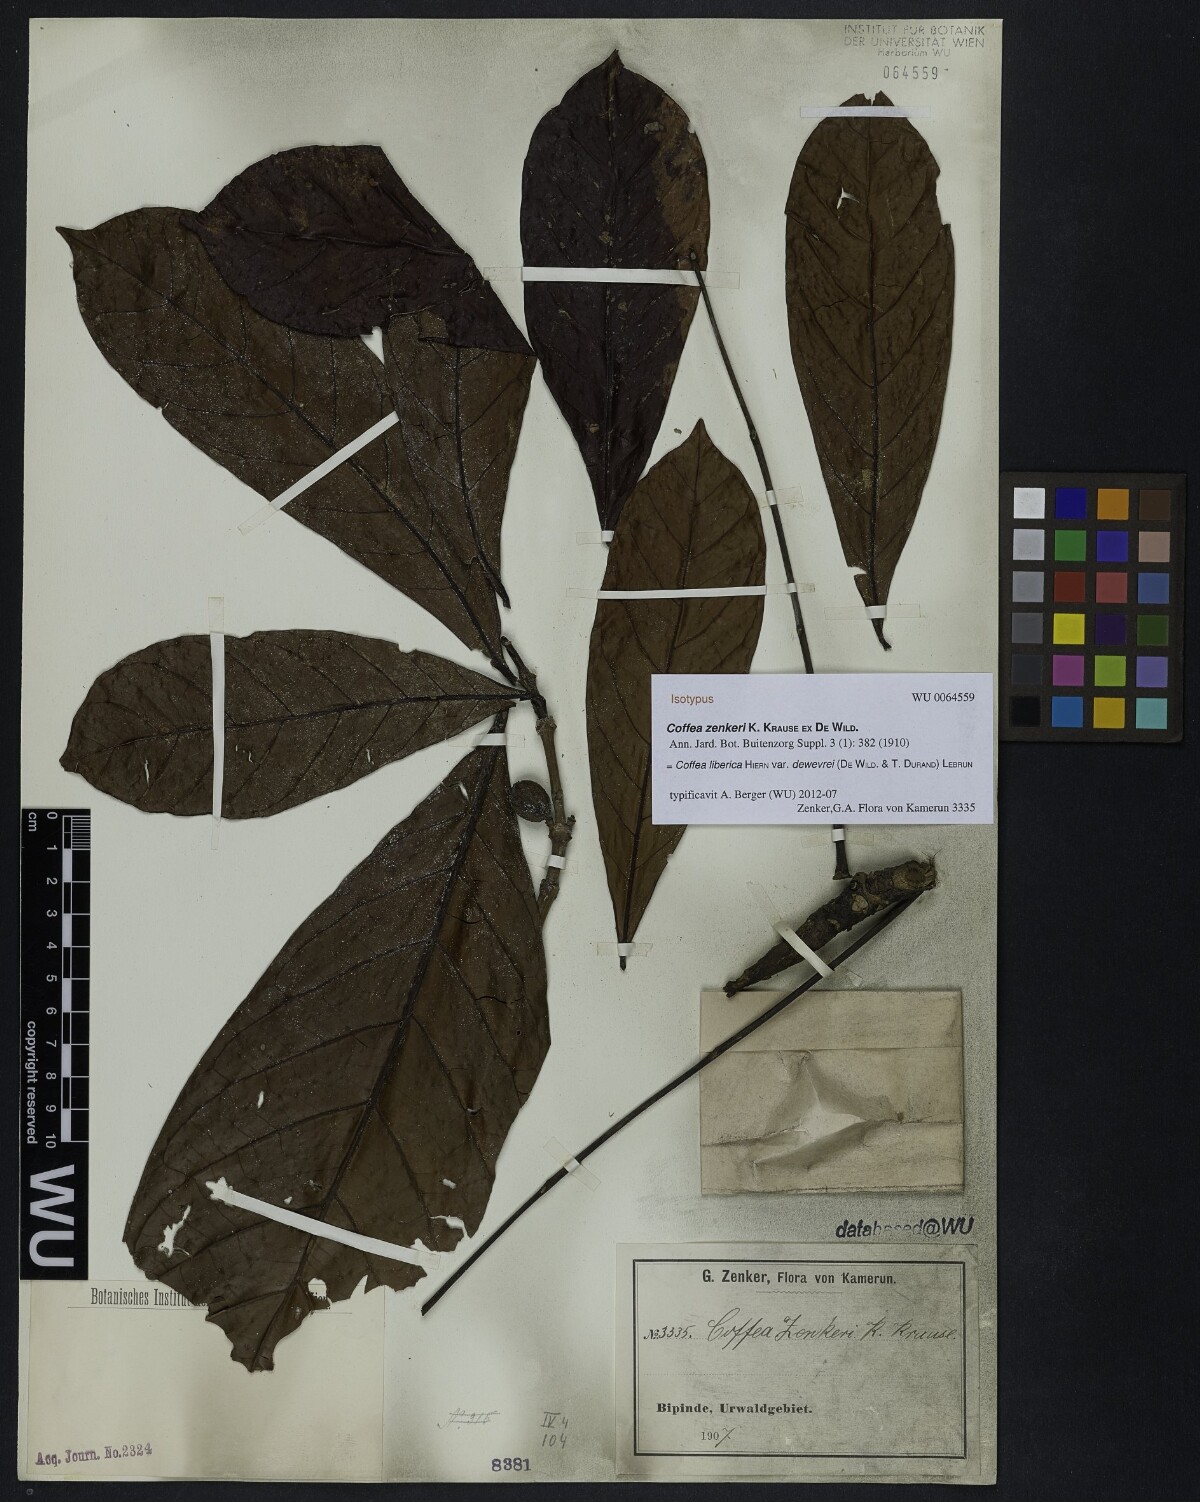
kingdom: Plantae
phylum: Tracheophyta
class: Magnoliopsida
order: Gentianales
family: Rubiaceae
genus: Coffea
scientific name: Coffea liberica
